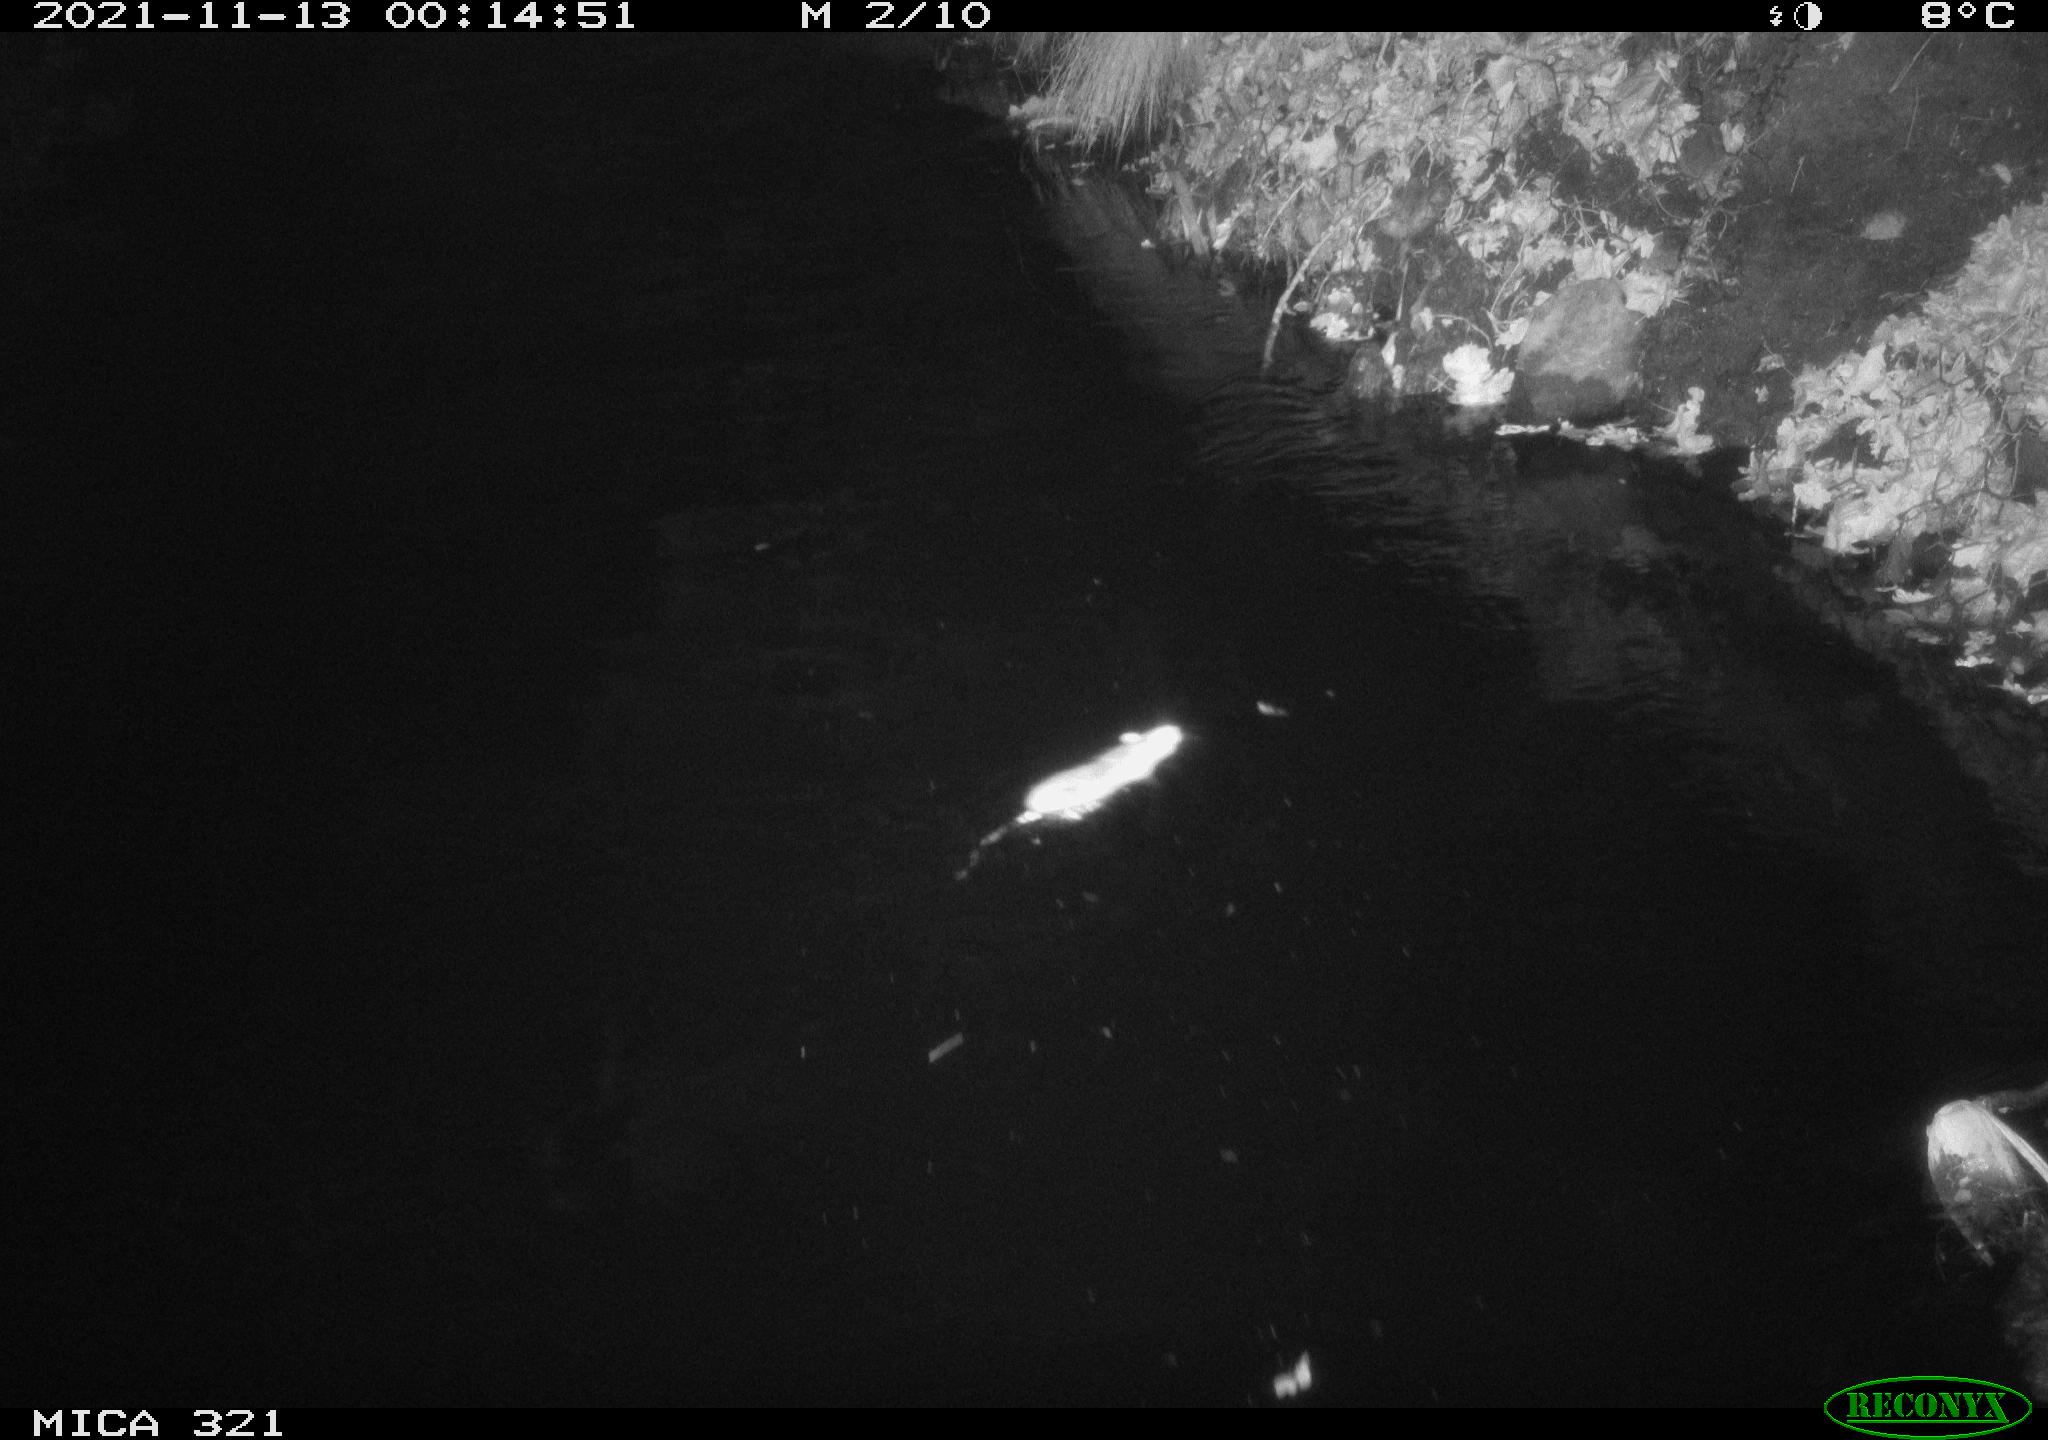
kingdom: Animalia
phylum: Chordata
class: Mammalia
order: Rodentia
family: Muridae
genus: Rattus
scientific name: Rattus norvegicus
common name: Brown rat
